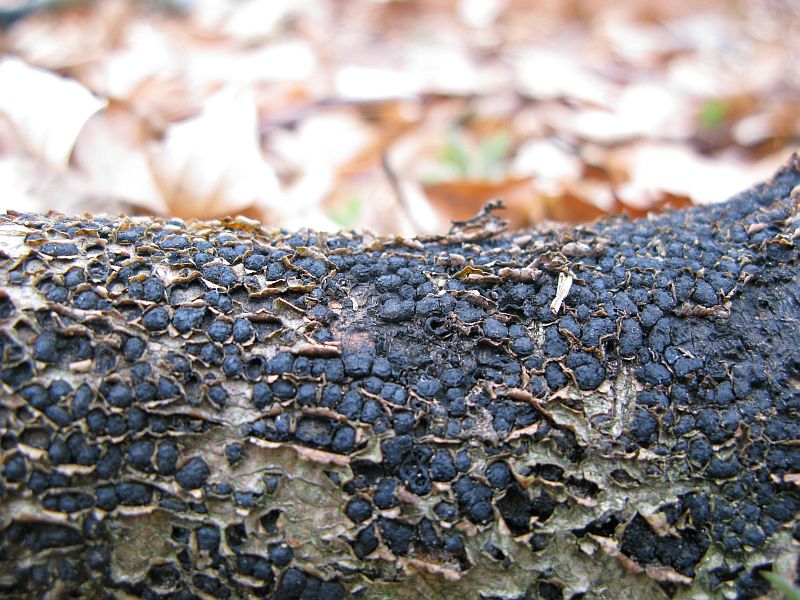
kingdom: Fungi
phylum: Ascomycota
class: Sordariomycetes
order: Xylariales
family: Melogrammataceae
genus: Melogramma
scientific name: Melogramma spiniferum
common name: bøgefod-kulhals
